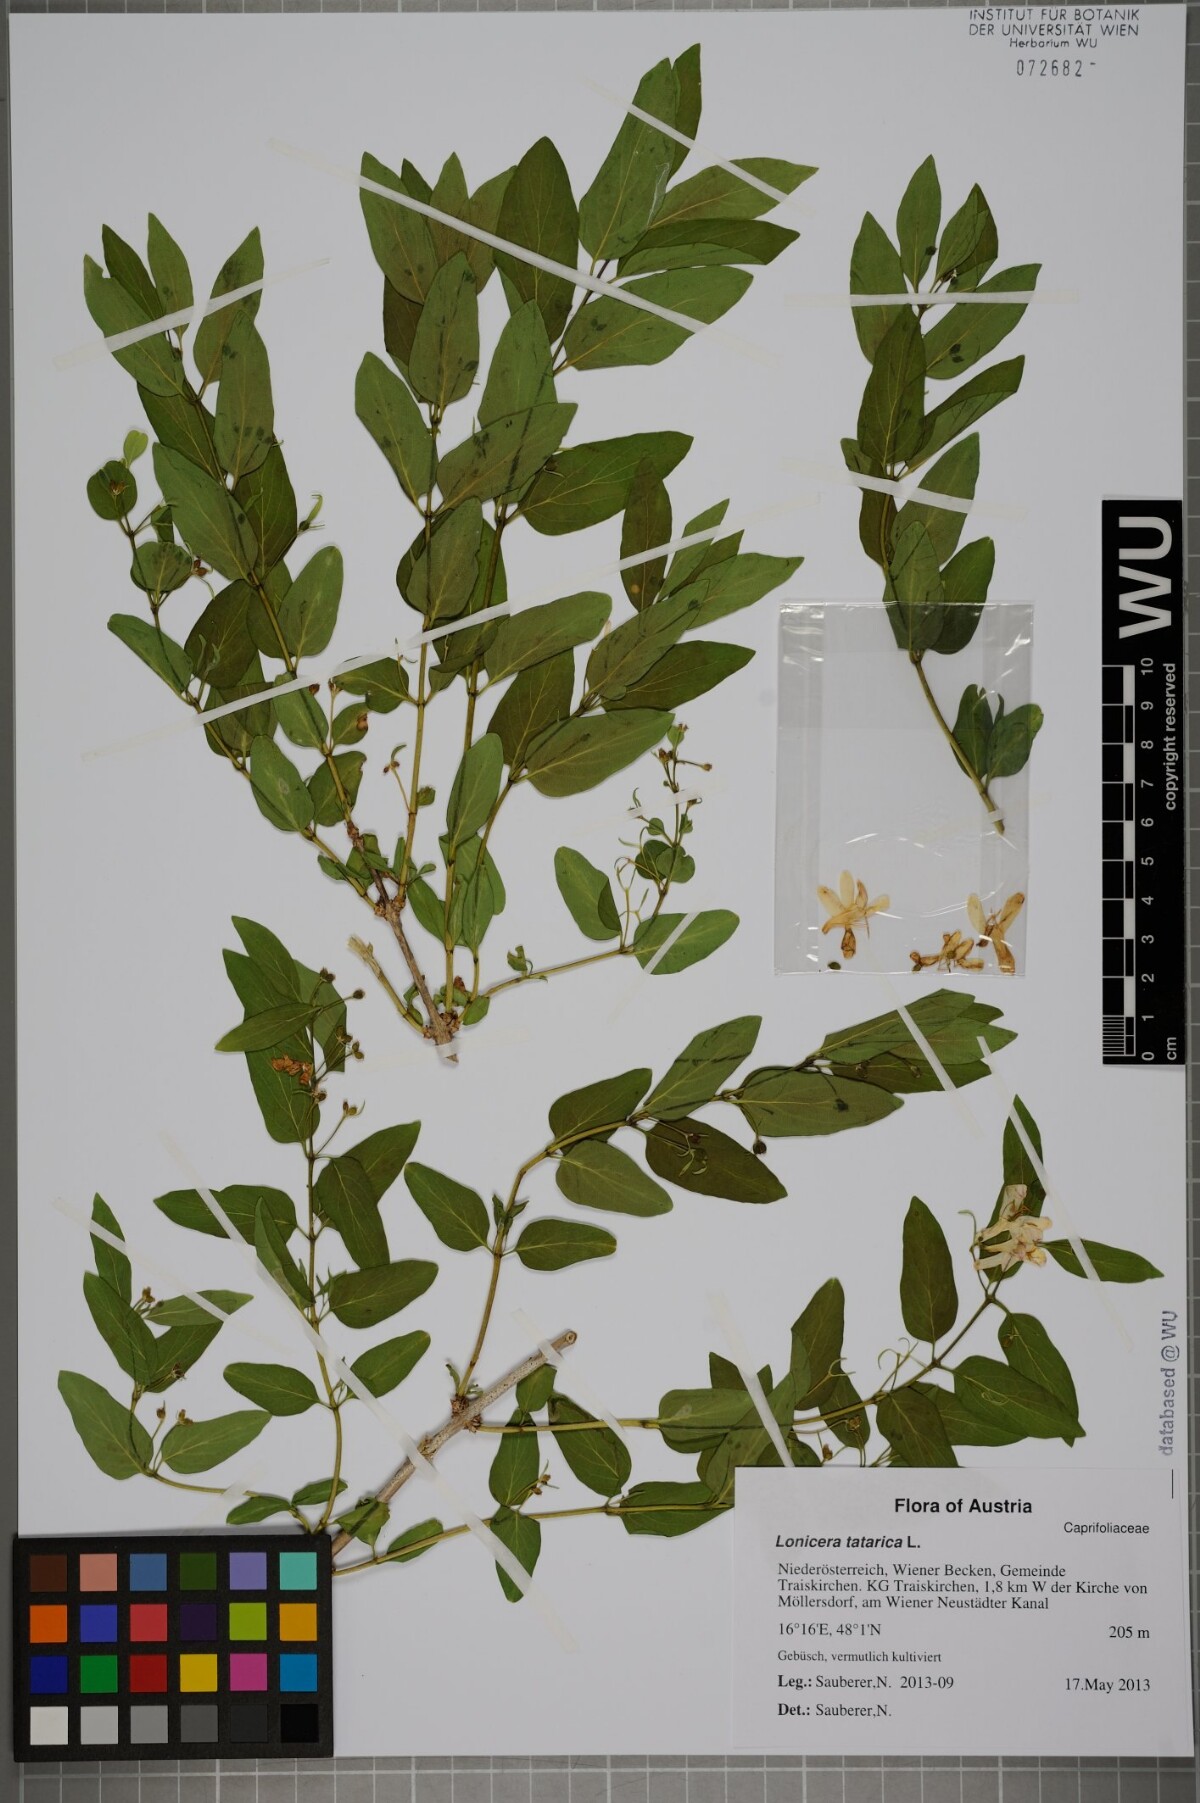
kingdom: Plantae
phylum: Tracheophyta
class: Magnoliopsida
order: Dipsacales
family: Caprifoliaceae
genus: Lonicera
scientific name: Lonicera tatarica
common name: Tatarian honeysuckle
